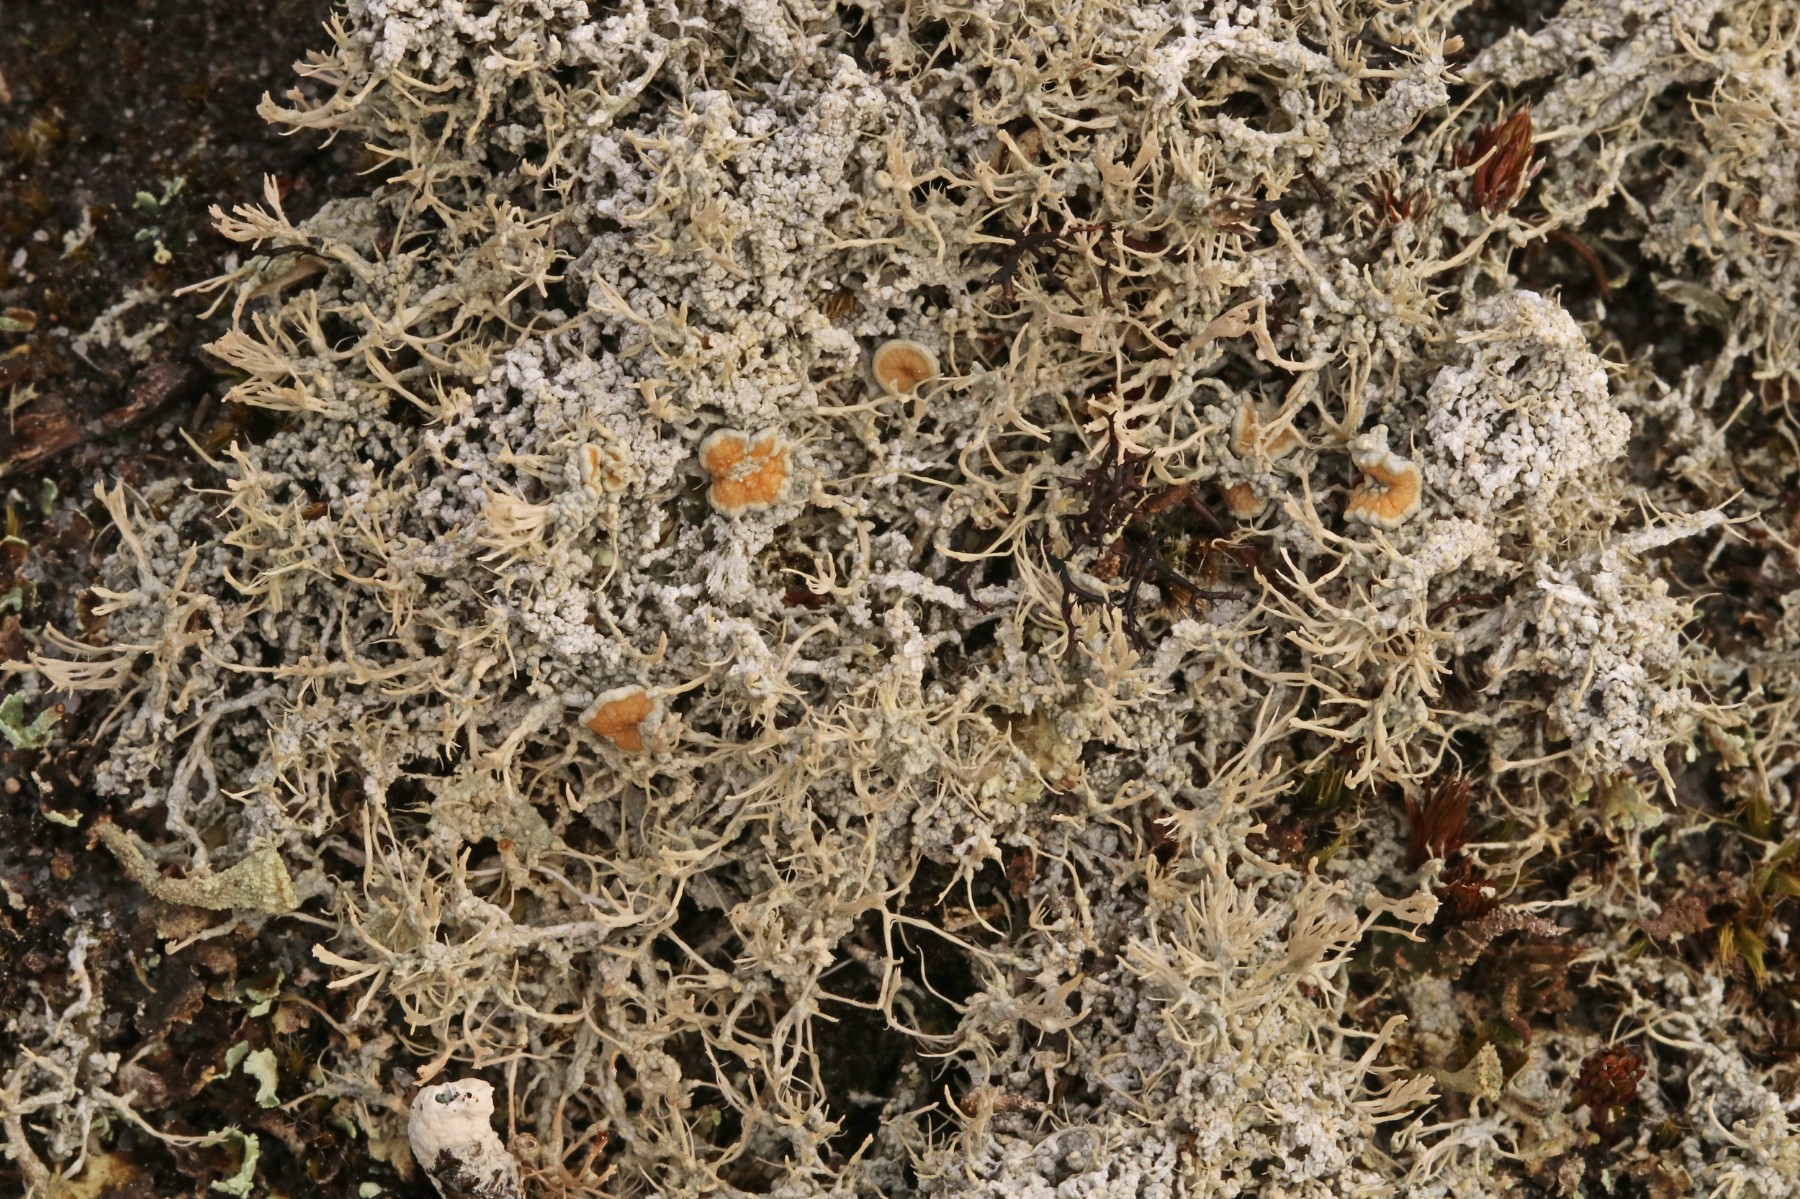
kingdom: Fungi
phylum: Ascomycota
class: Lecanoromycetes
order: Pertusariales
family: Ochrolechiaceae
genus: Ochrolechia
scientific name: Ochrolechia frigida
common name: fjeld-blegskivelav
